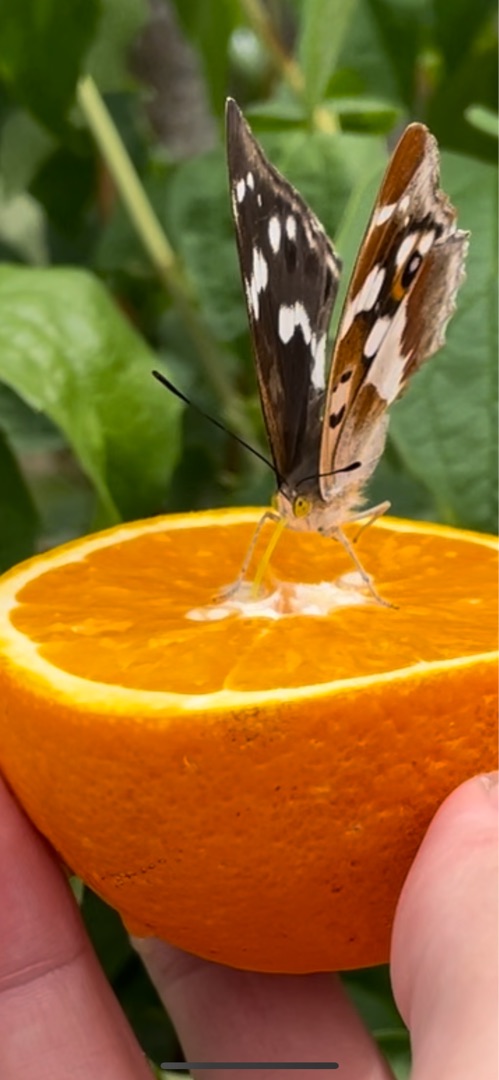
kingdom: Animalia
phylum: Arthropoda
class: Insecta
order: Lepidoptera
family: Nymphalidae
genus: Apatura
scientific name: Apatura iris
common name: Iris
